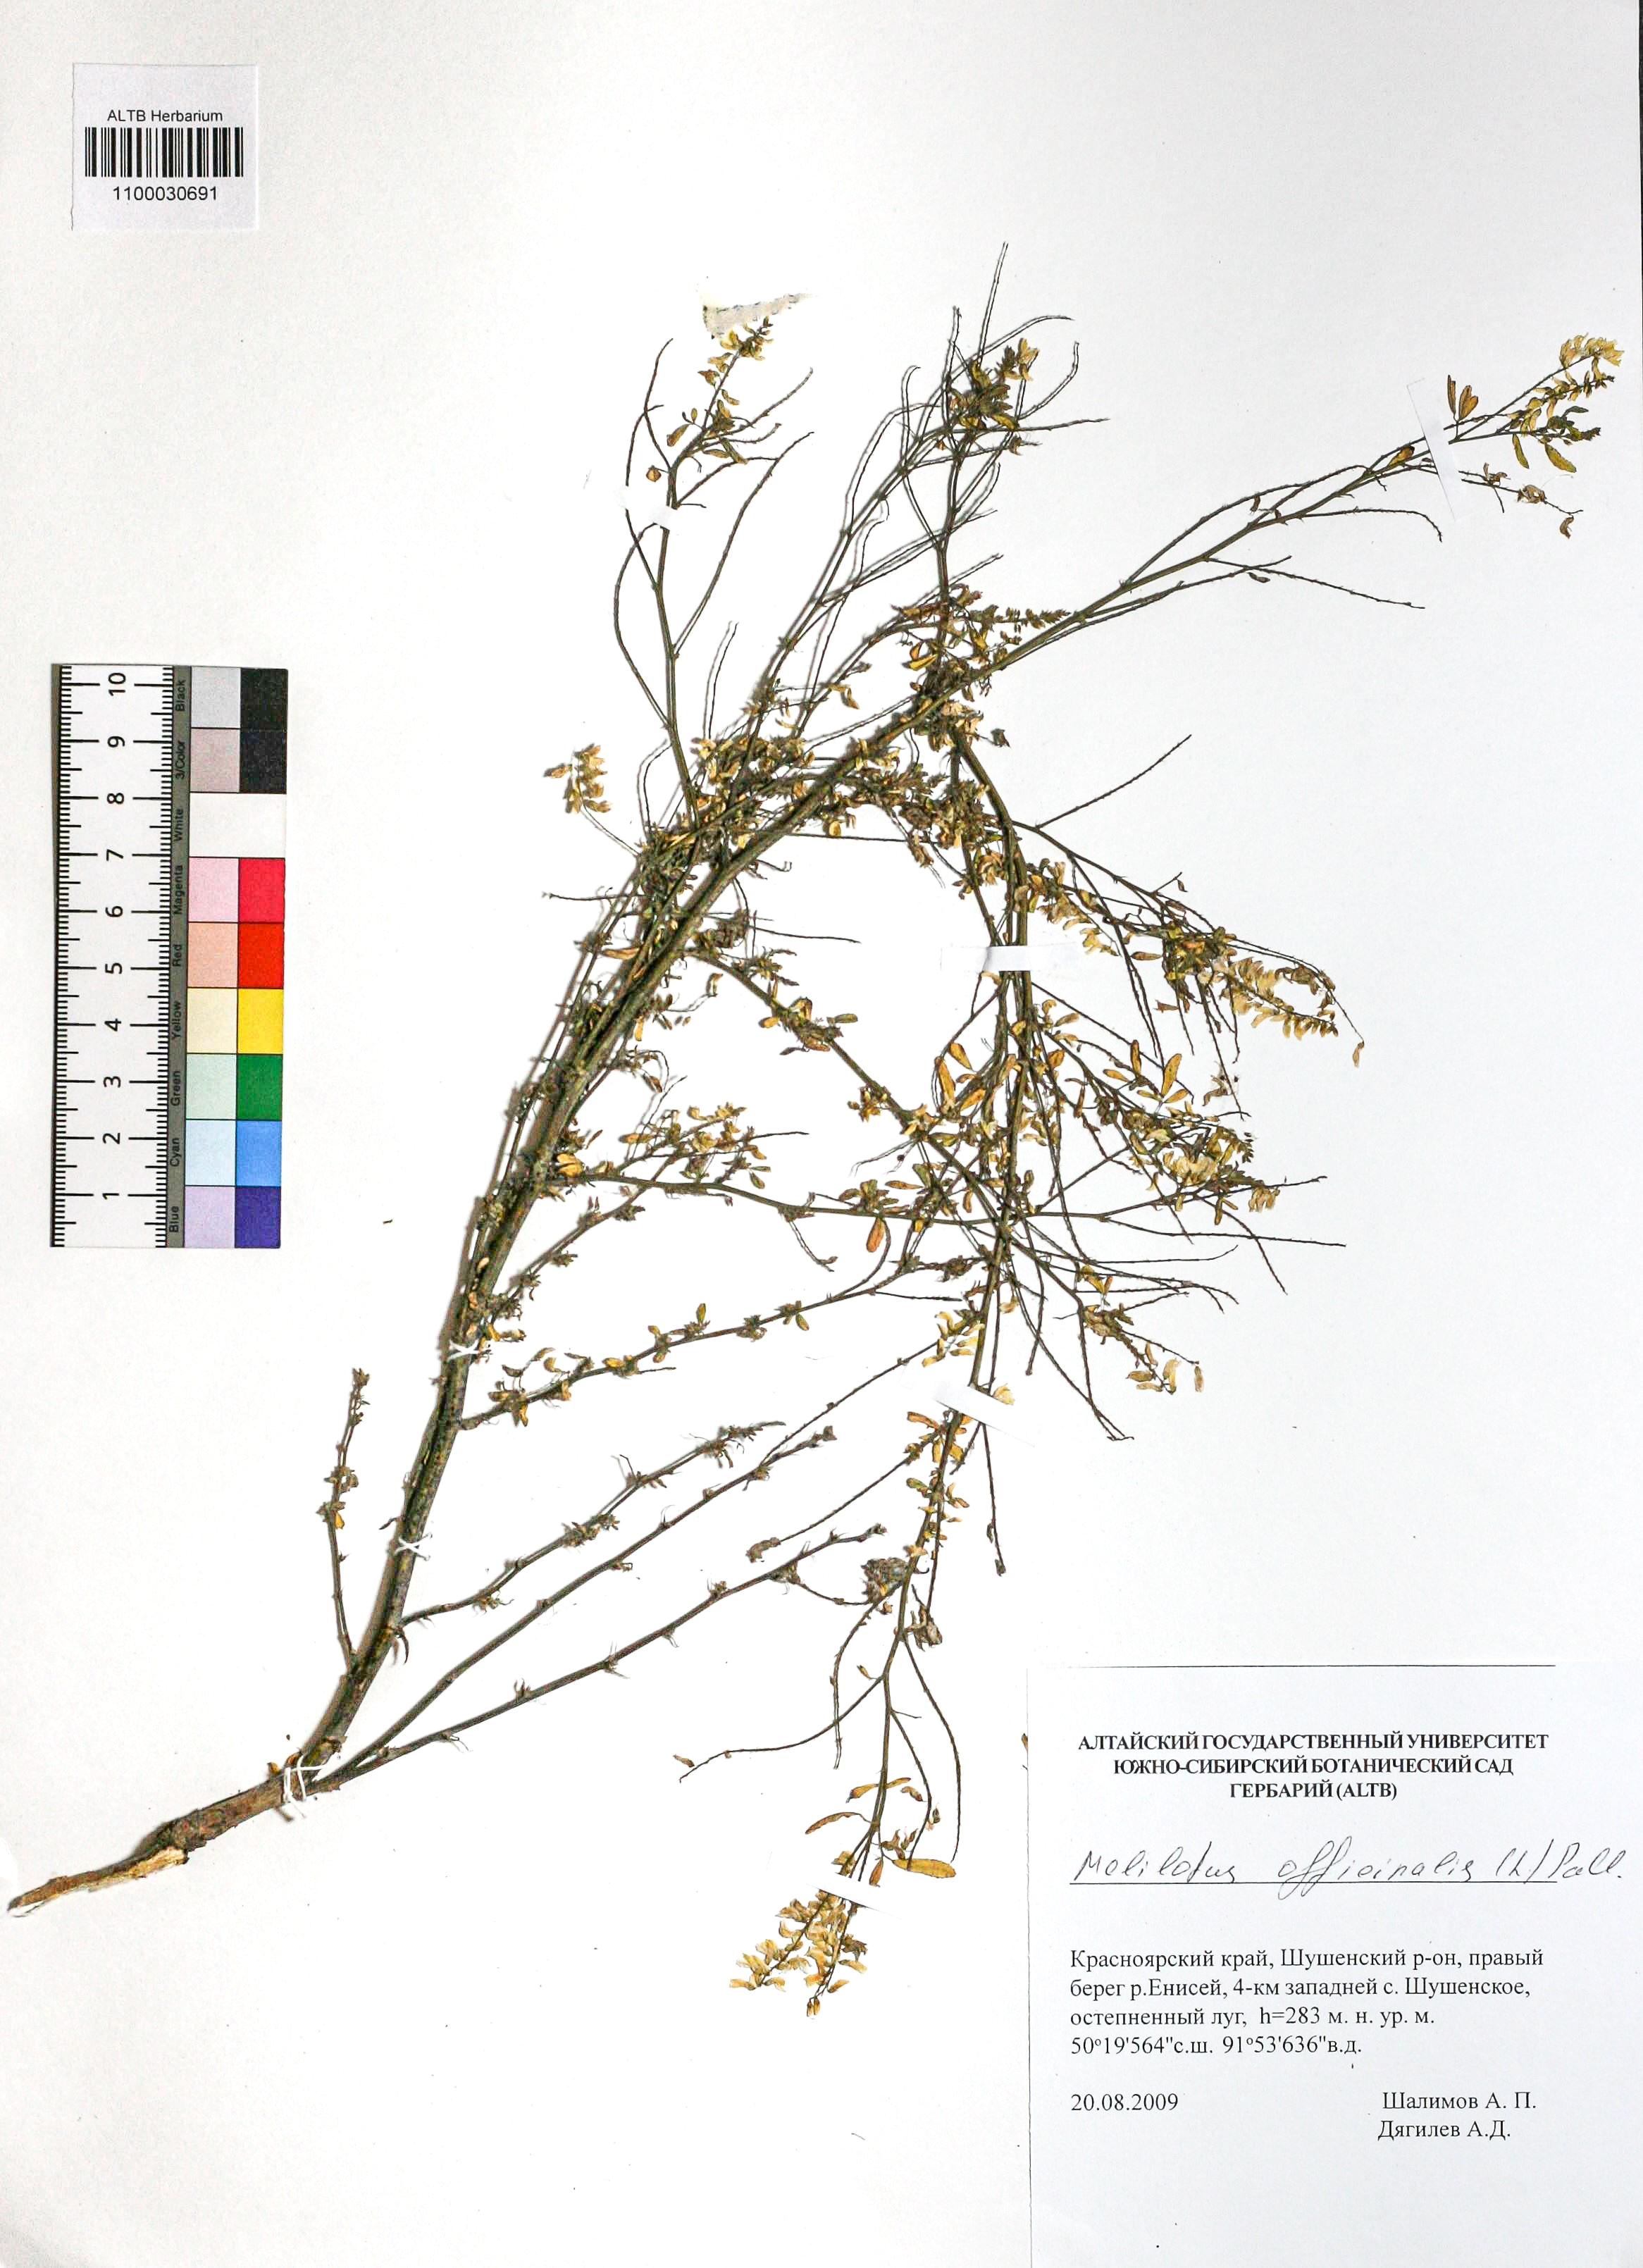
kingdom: Plantae
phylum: Tracheophyta
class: Magnoliopsida
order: Fabales
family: Fabaceae
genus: Melilotus
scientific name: Melilotus officinalis
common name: Sweetclover
